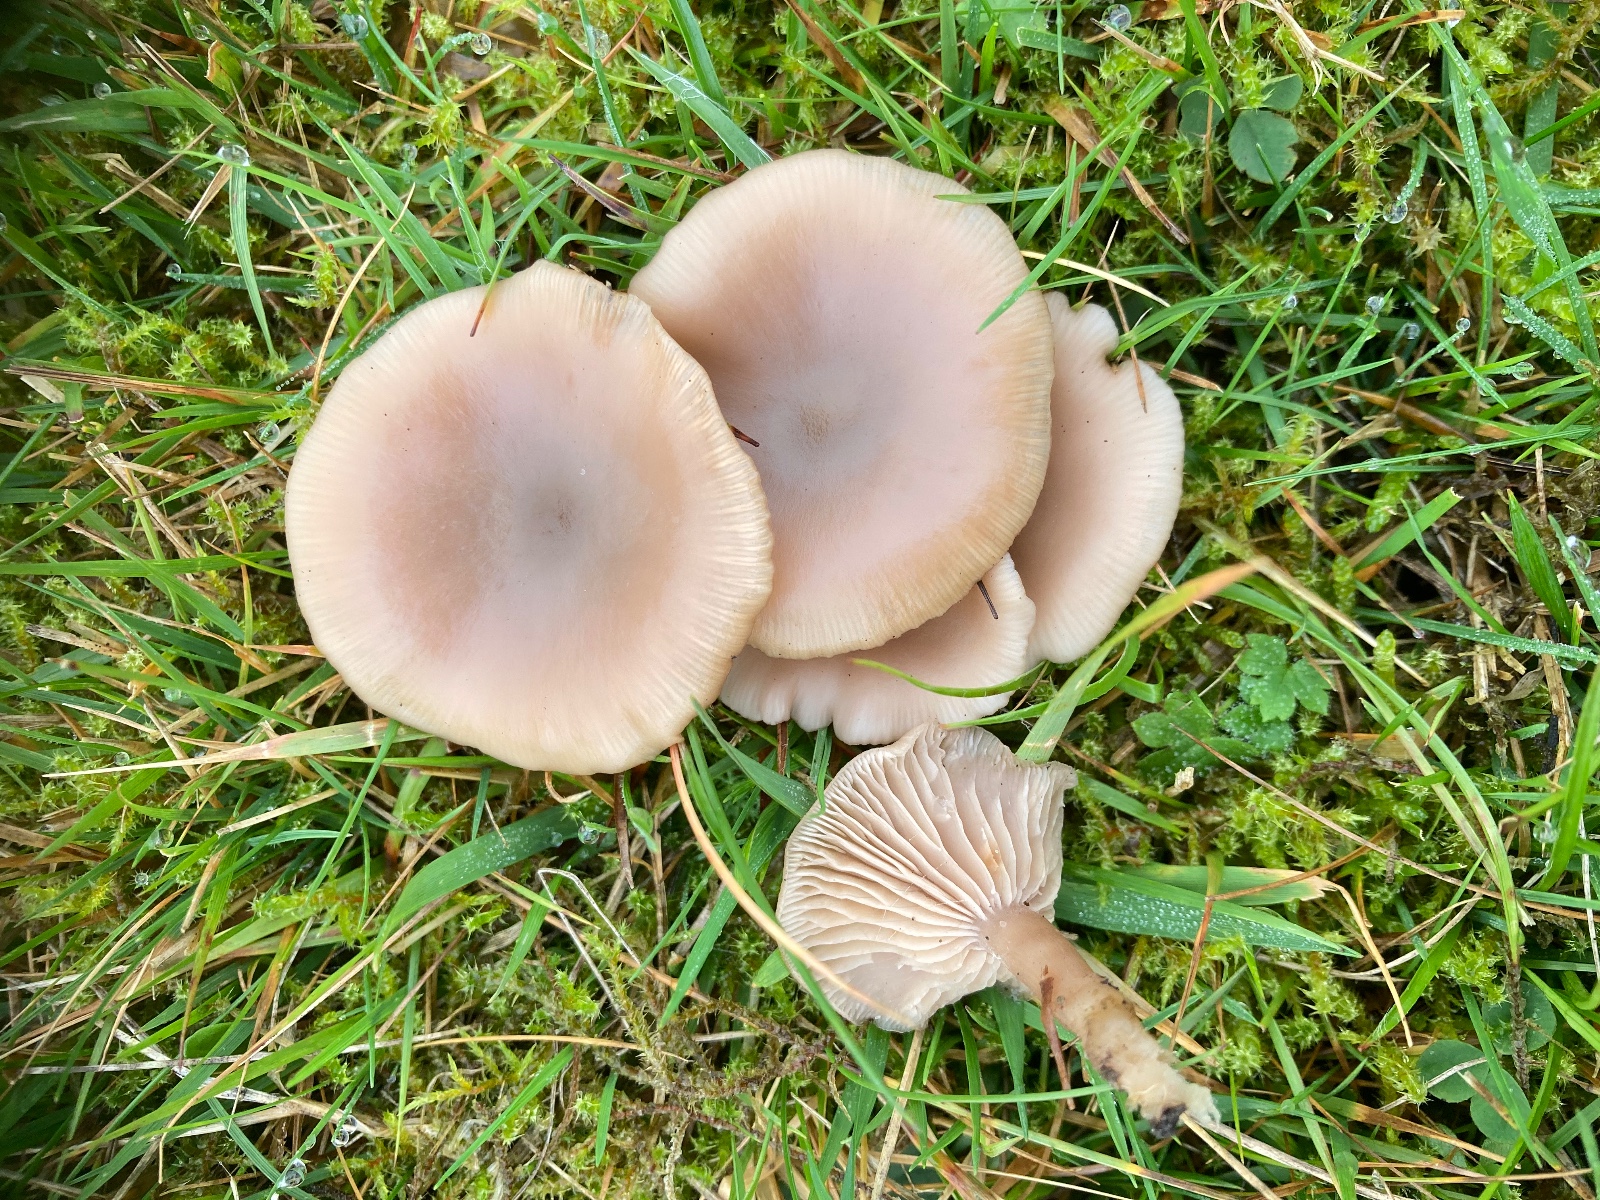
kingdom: Fungi
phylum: Basidiomycota
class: Agaricomycetes
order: Agaricales
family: Tricholomataceae
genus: Lepista
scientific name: Lepista sordida
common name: spinkel hekseringshat
